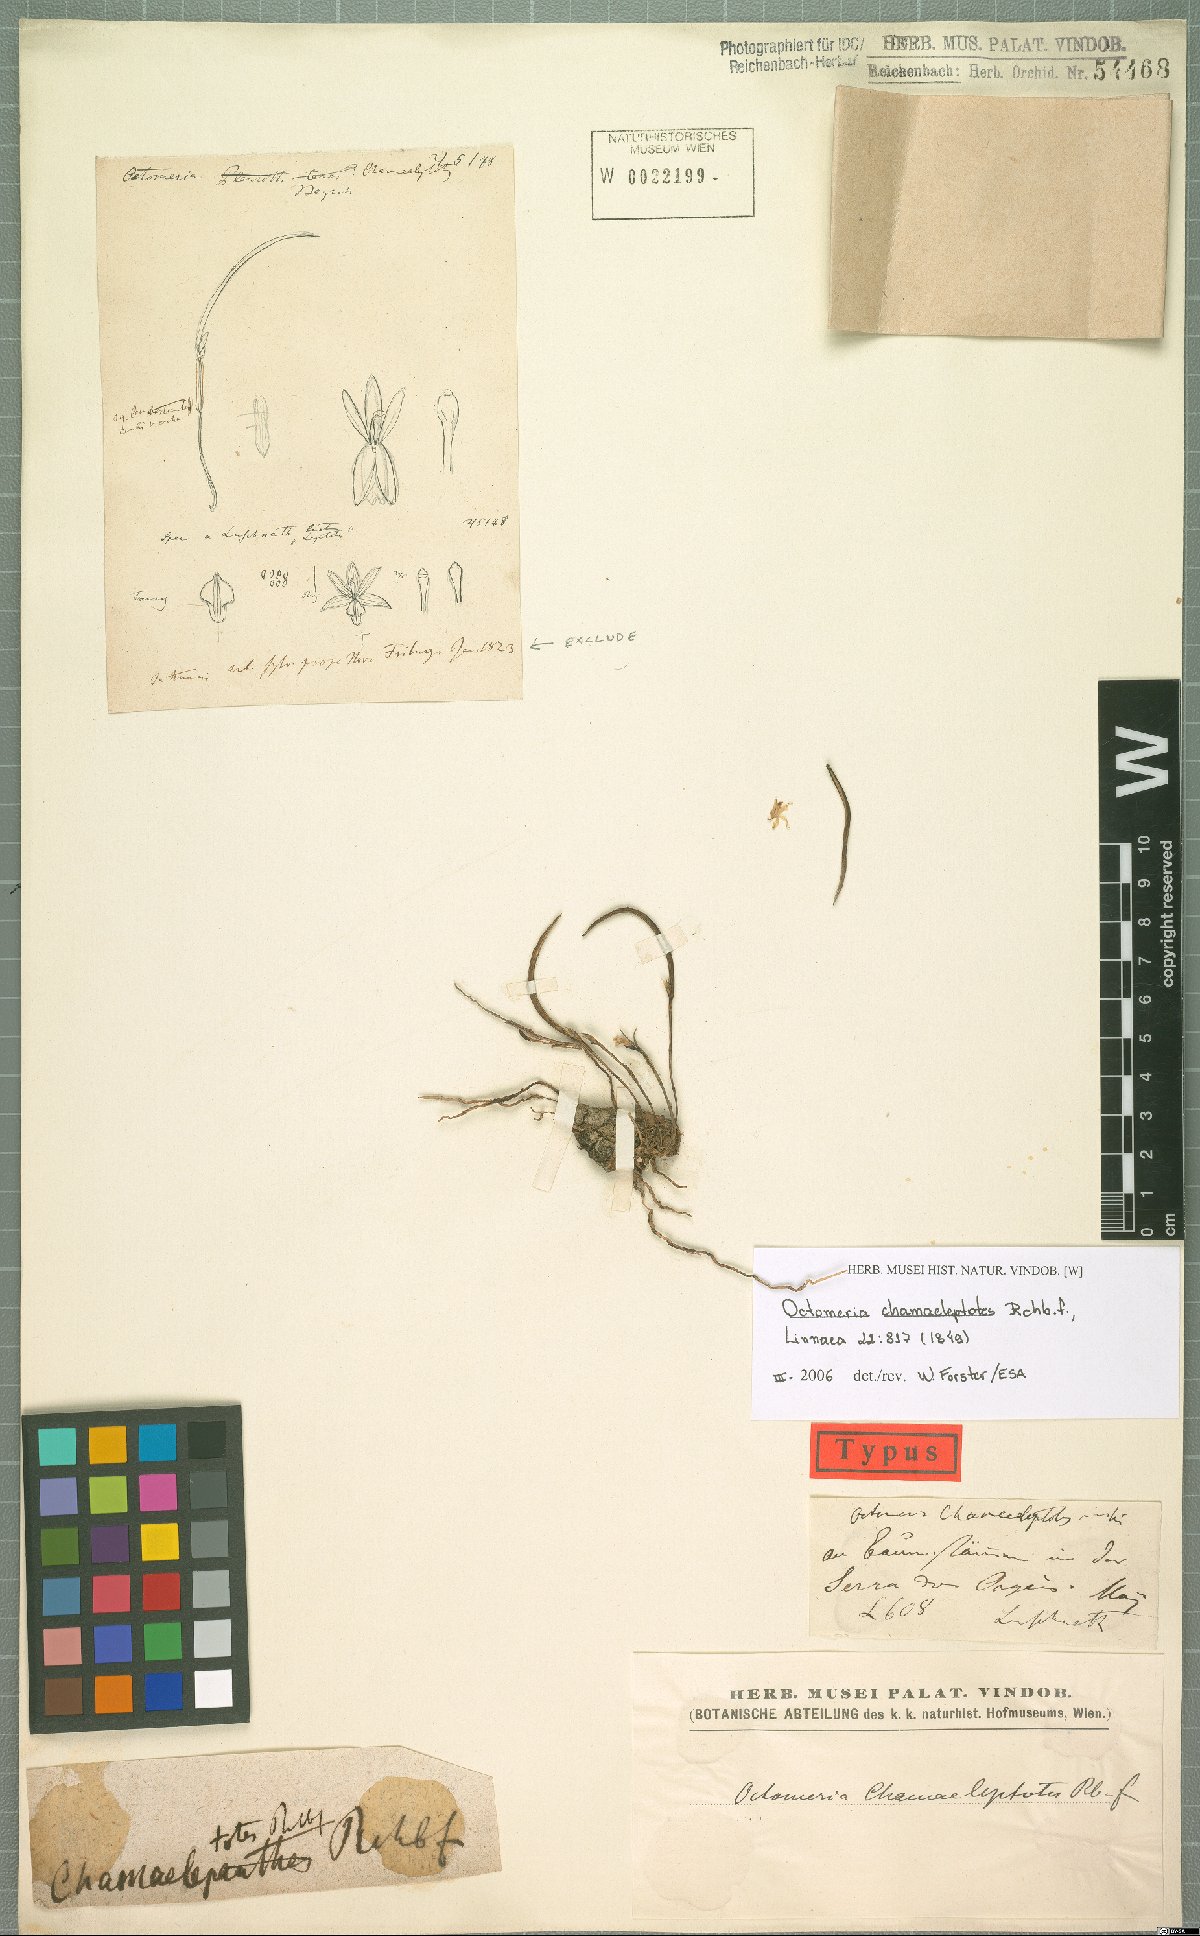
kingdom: Plantae
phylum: Tracheophyta
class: Liliopsida
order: Asparagales
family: Orchidaceae
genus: Octomeria
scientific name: Octomeria chamaeleptotes
